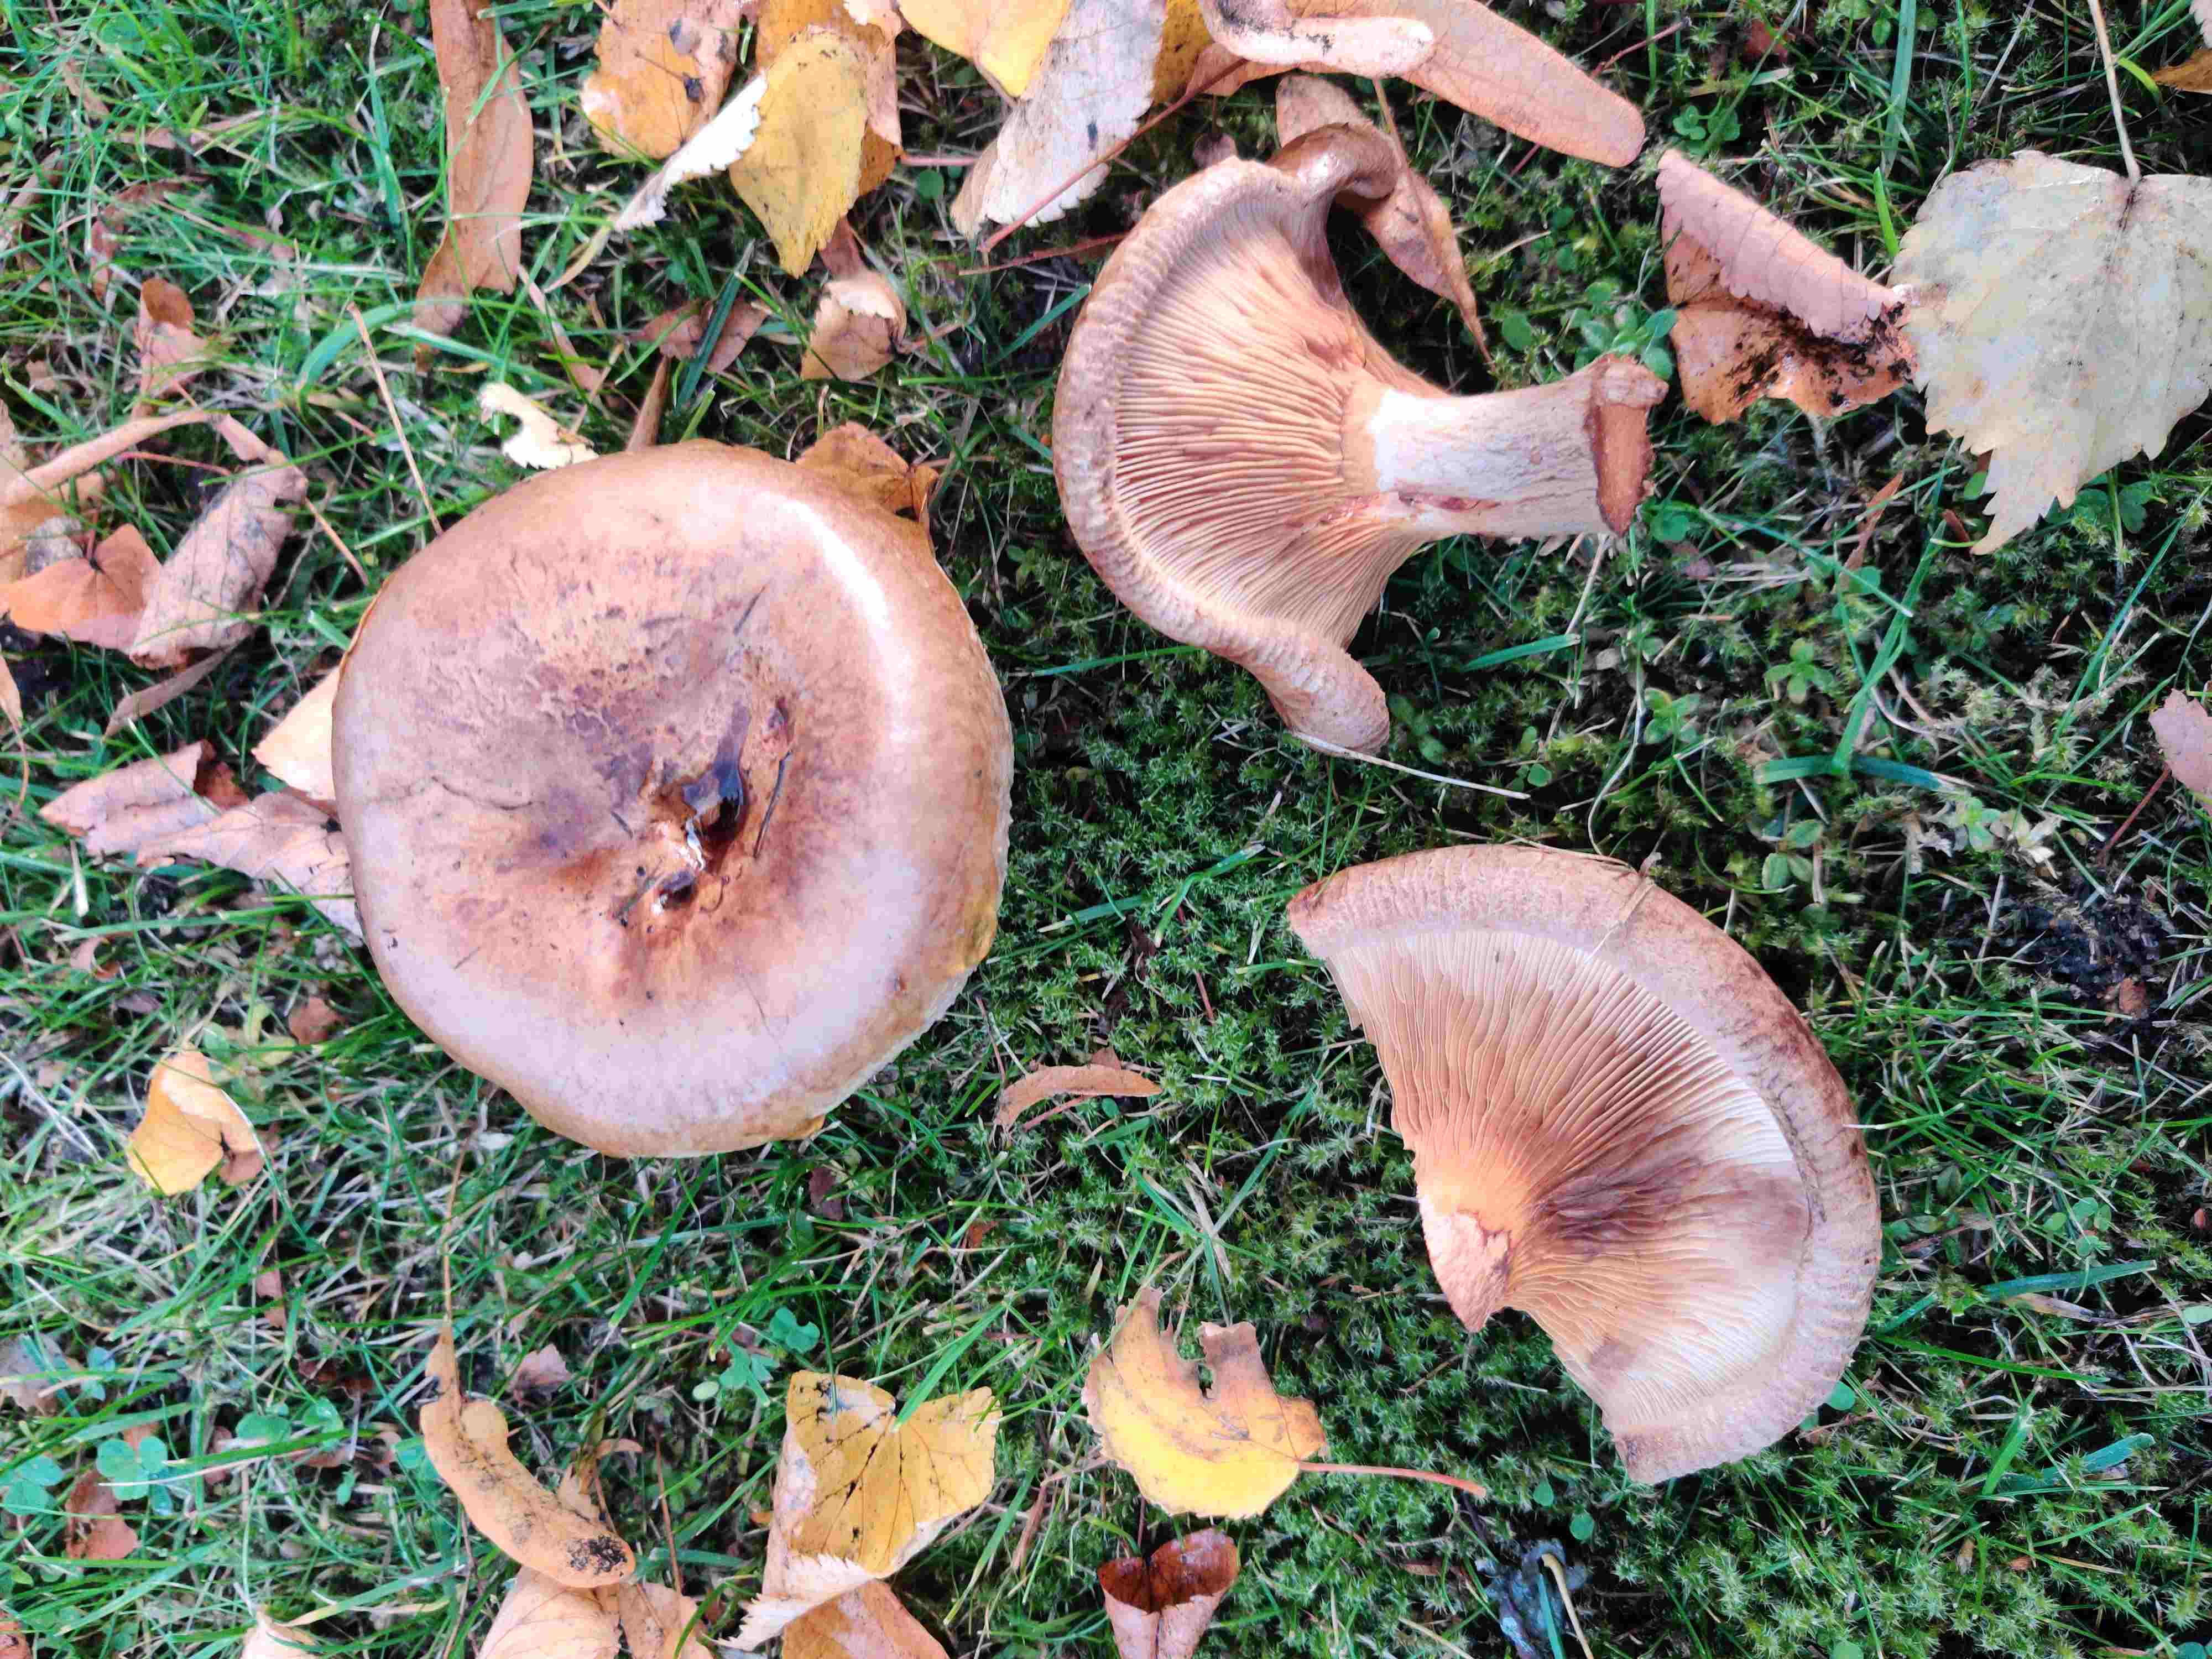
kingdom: Fungi
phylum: Basidiomycota
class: Agaricomycetes
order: Boletales
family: Paxillaceae
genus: Paxillus
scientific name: Paxillus involutus
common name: almindelig netbladhat
